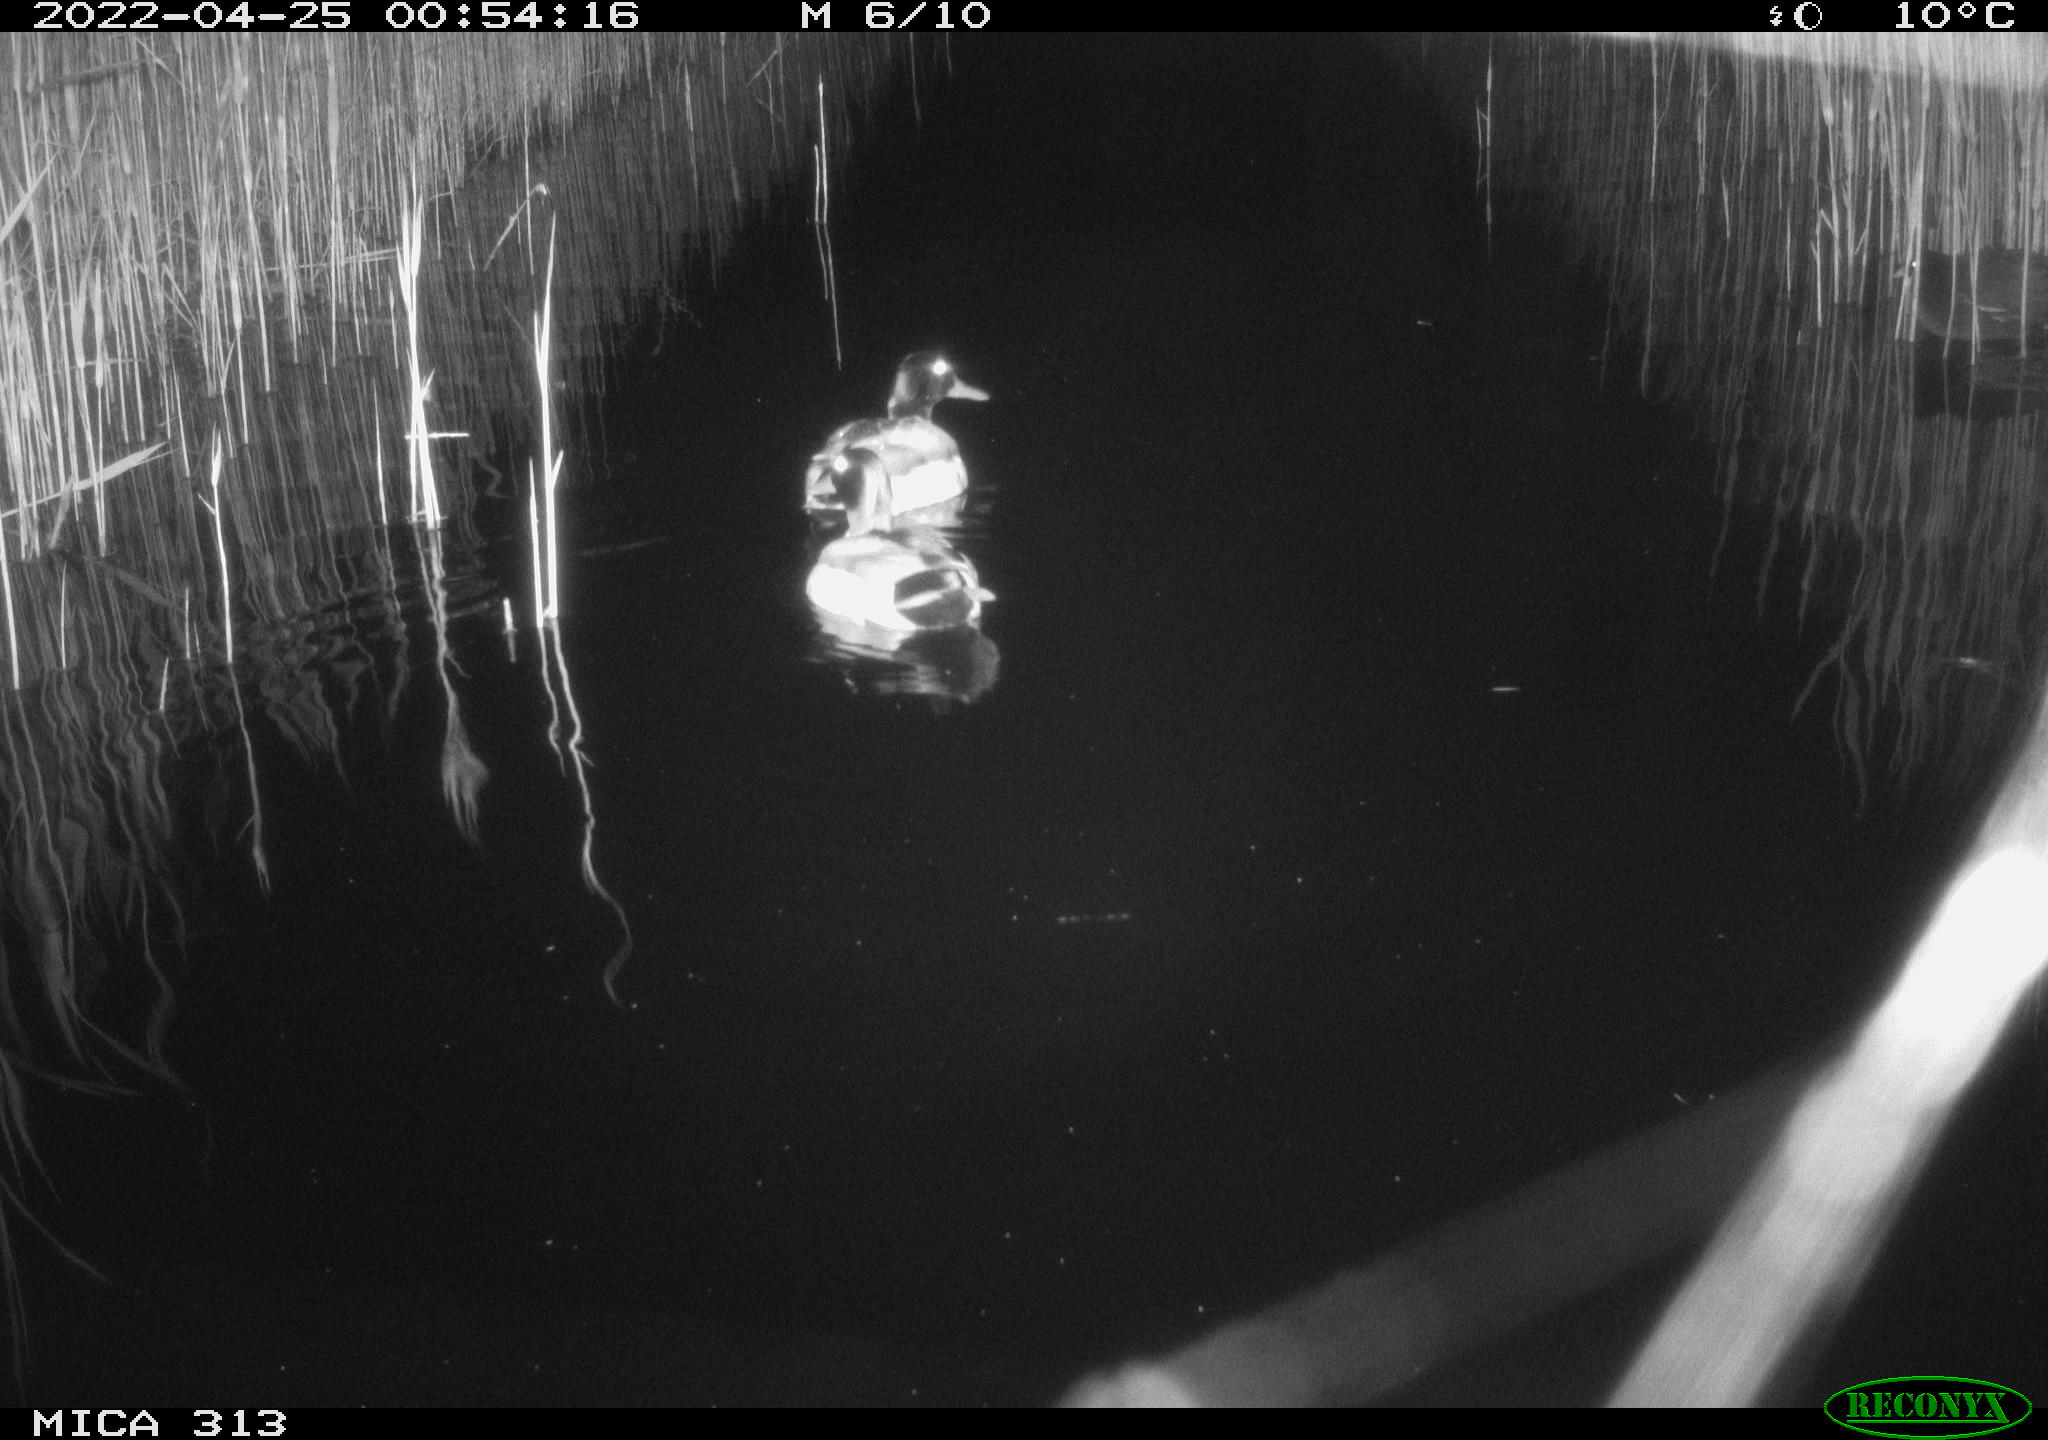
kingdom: Animalia
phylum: Chordata
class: Aves
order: Anseriformes
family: Anatidae
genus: Anas
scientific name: Anas platyrhynchos
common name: Mallard
